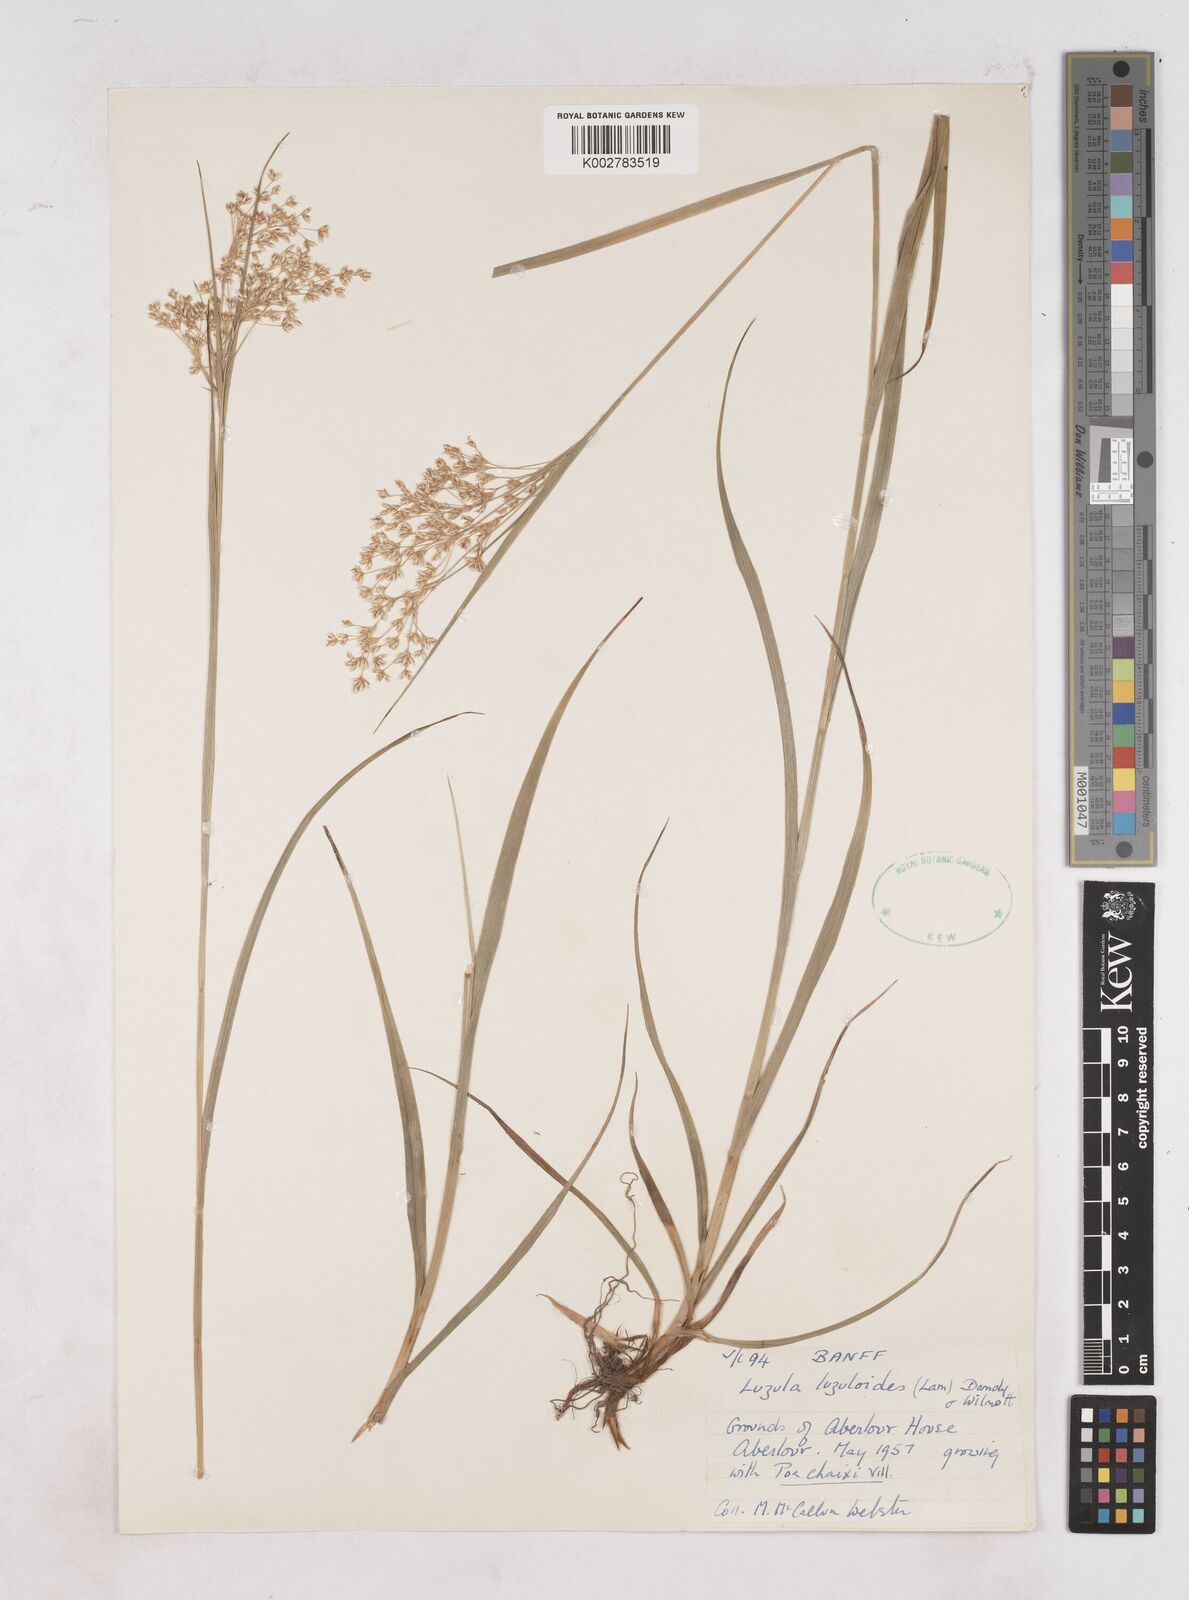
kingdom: Plantae
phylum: Tracheophyta
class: Liliopsida
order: Poales
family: Juncaceae
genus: Luzula
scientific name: Luzula luzuloides
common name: White wood-rush
